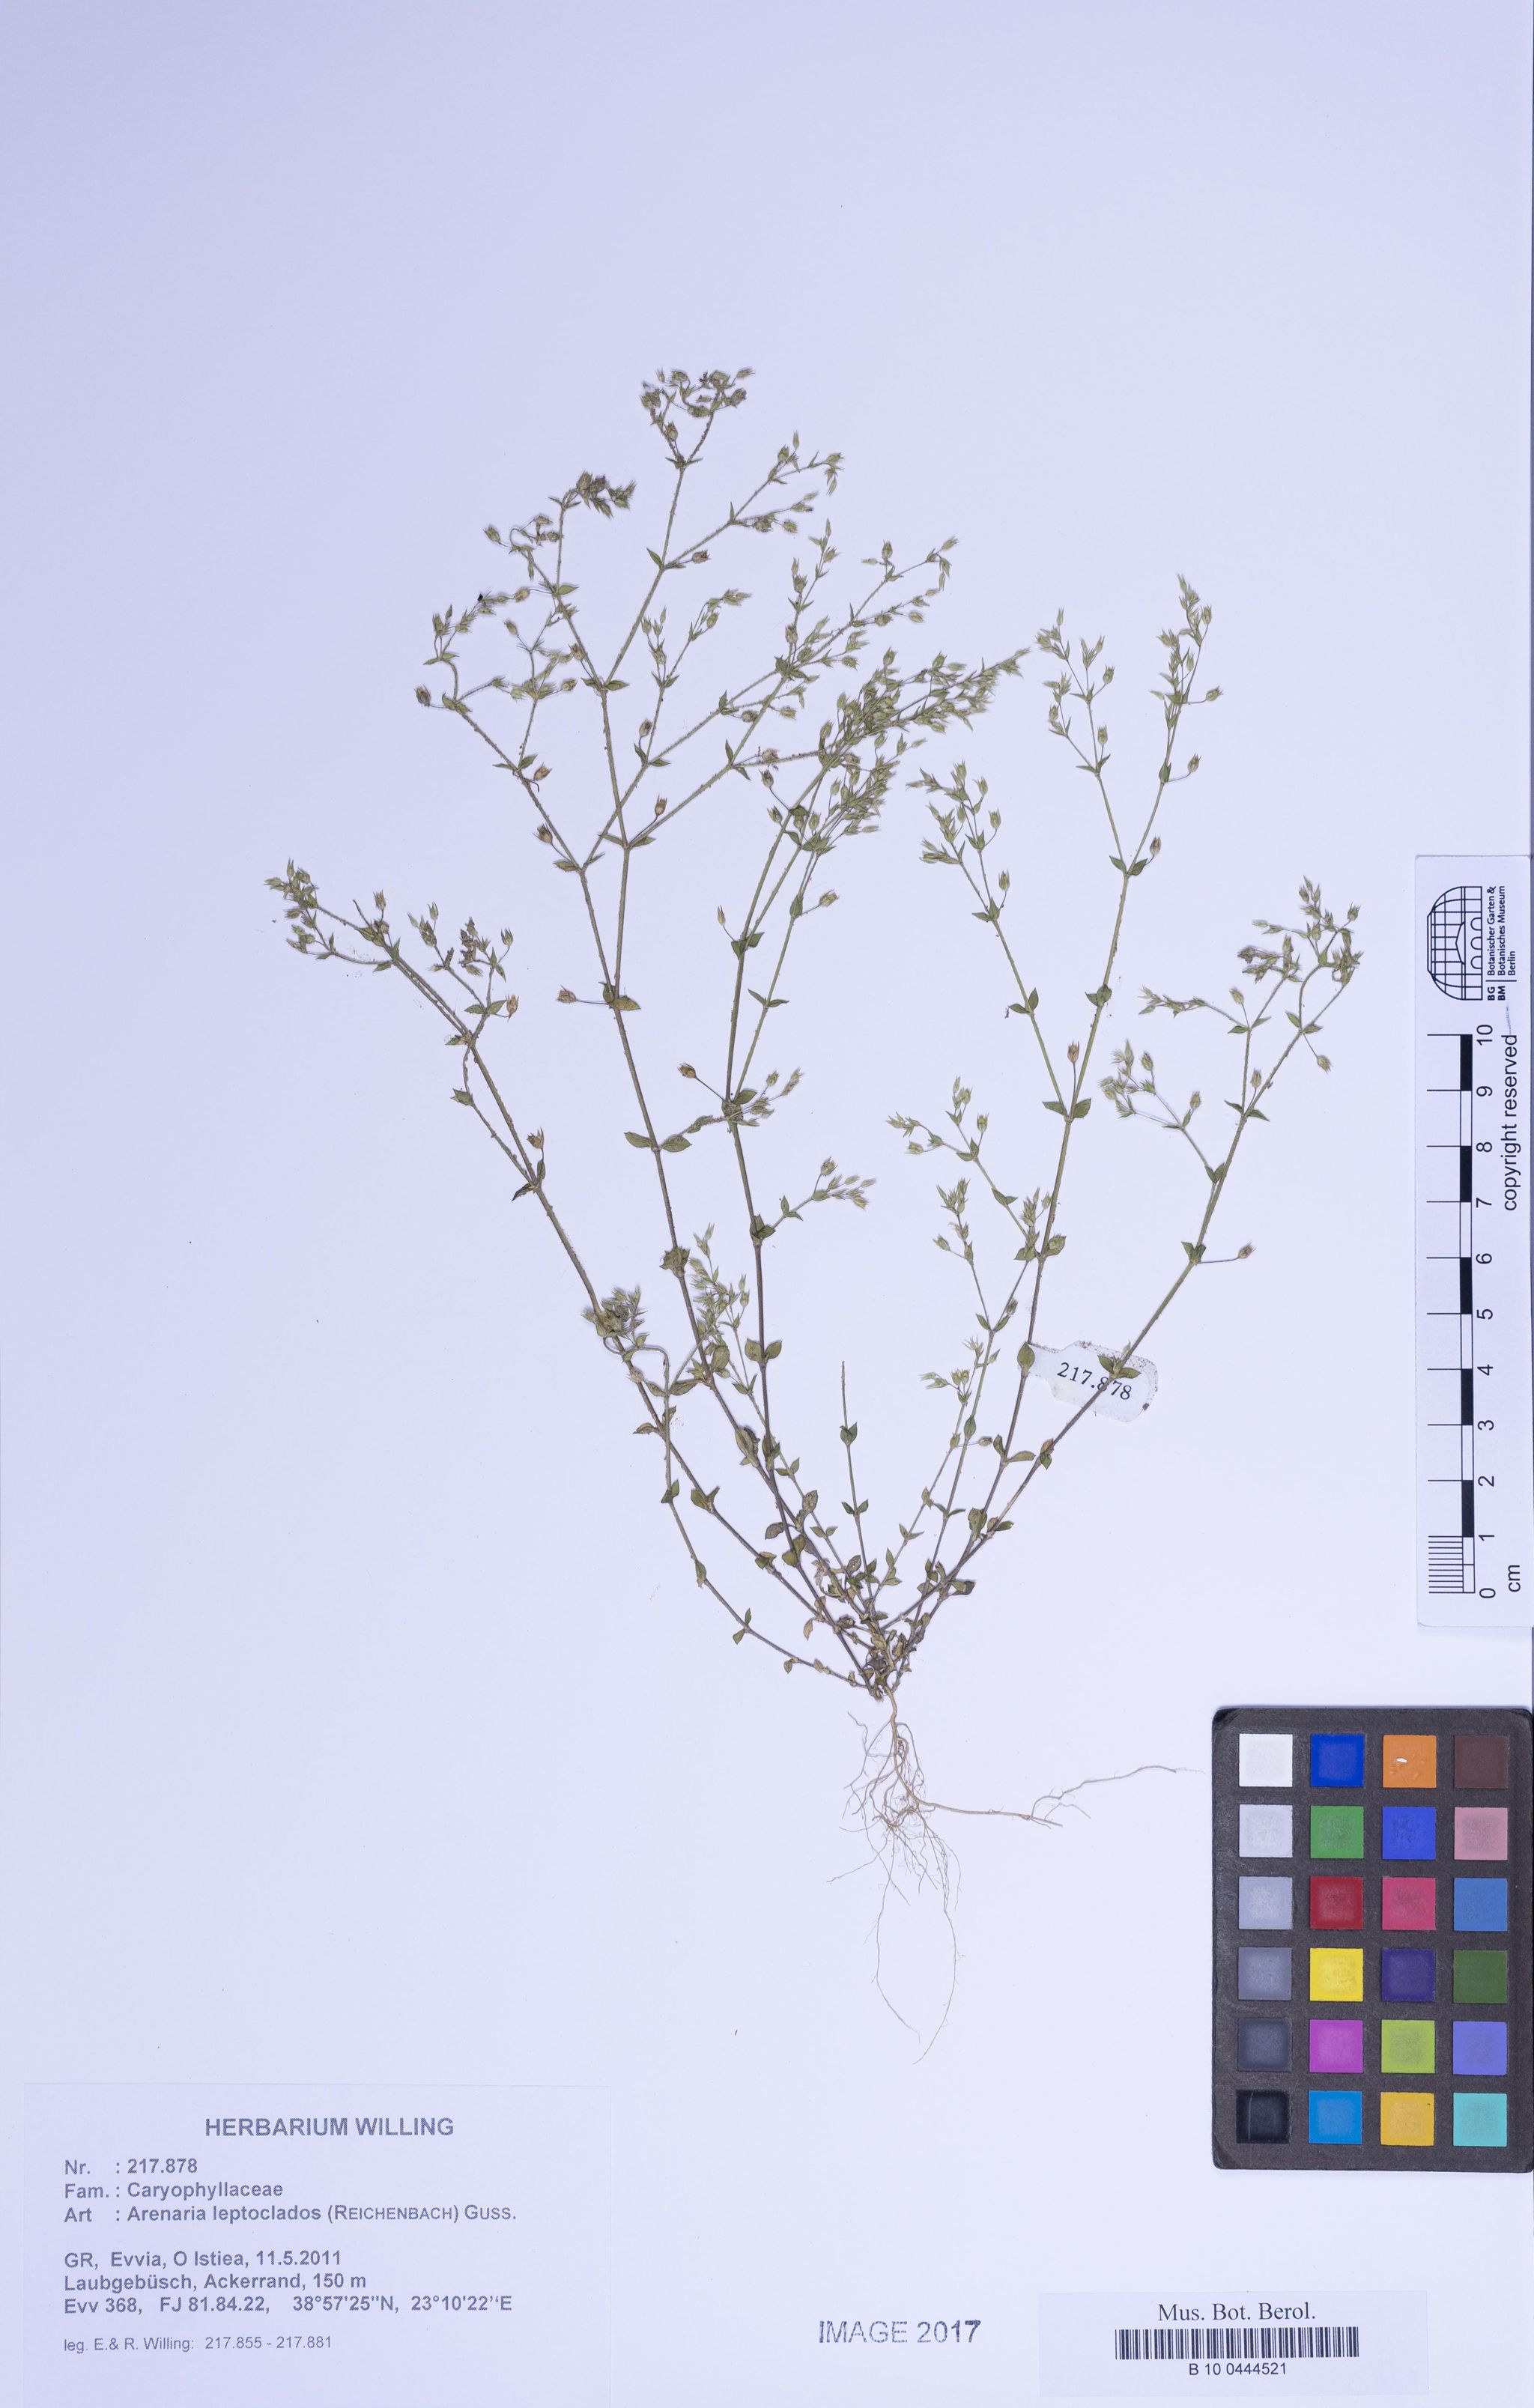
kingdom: Plantae
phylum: Tracheophyta
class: Magnoliopsida
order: Caryophyllales
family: Caryophyllaceae
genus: Arenaria
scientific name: Arenaria leptoclados
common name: Thyme-leaved sandwort
